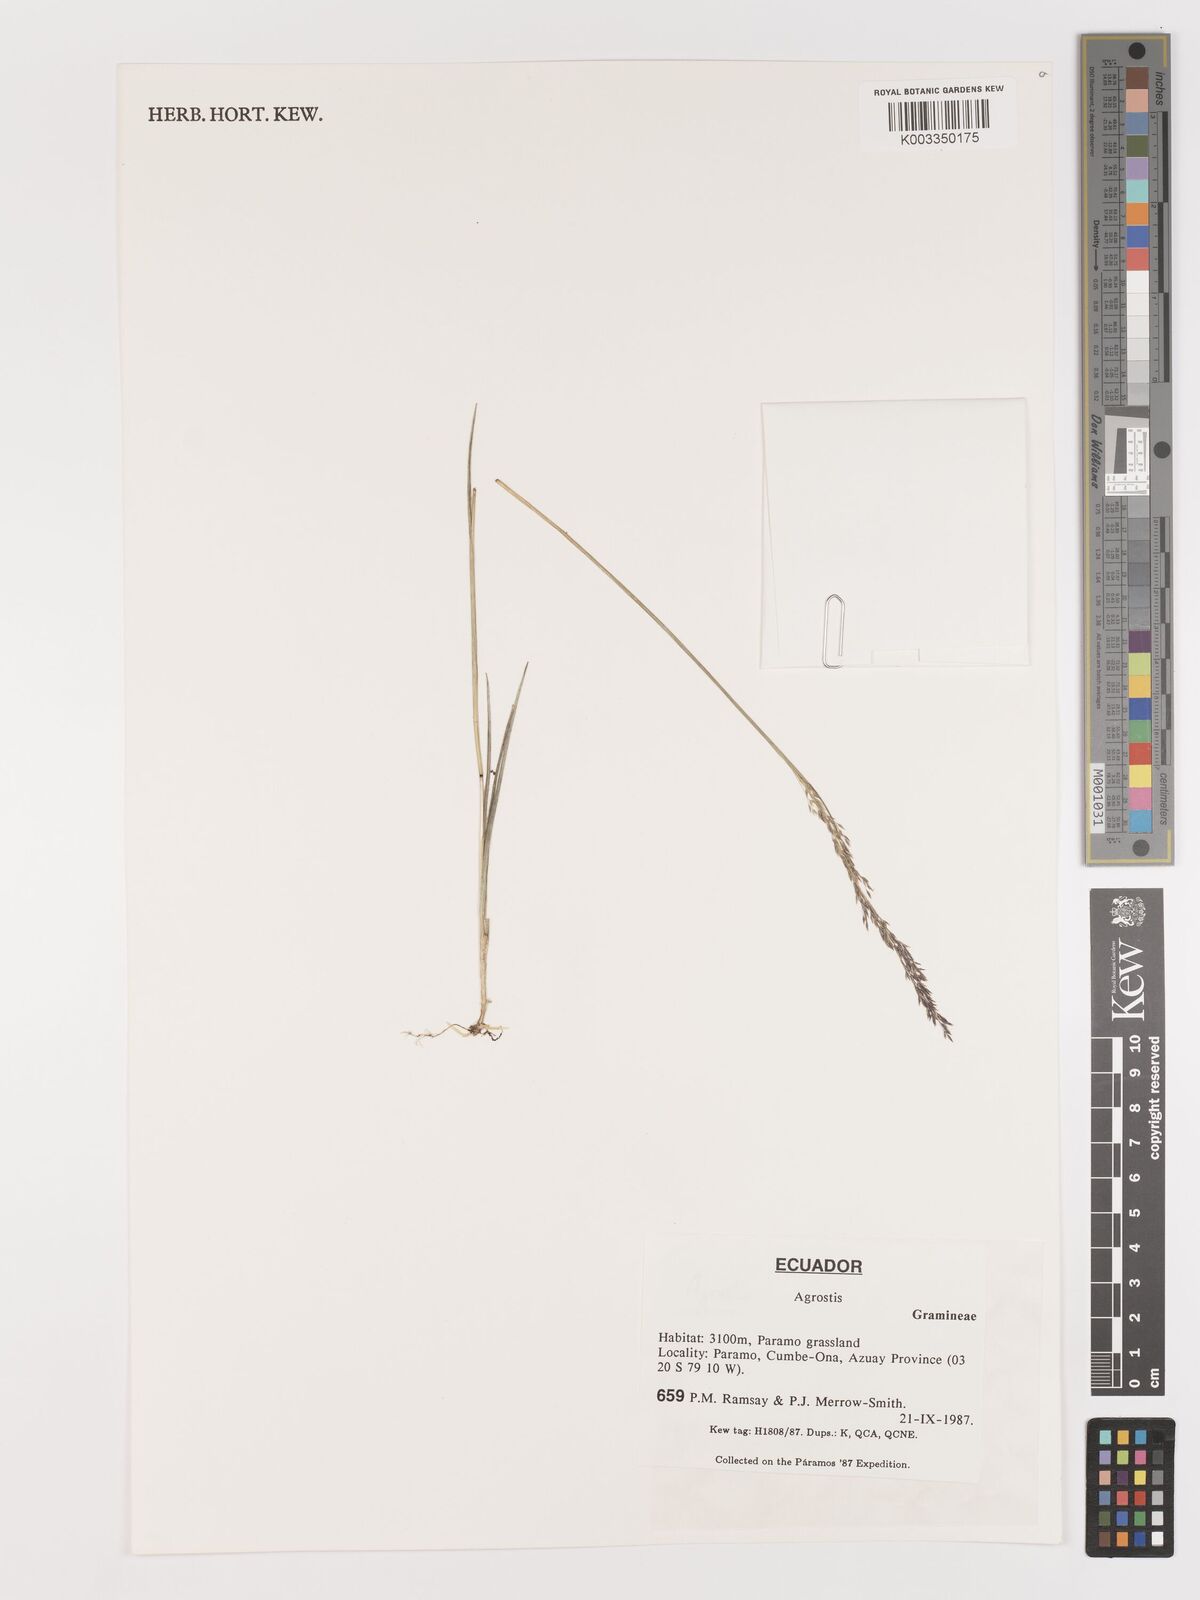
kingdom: Plantae
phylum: Tracheophyta
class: Liliopsida
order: Poales
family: Poaceae
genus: Agrostis
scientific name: Agrostis
